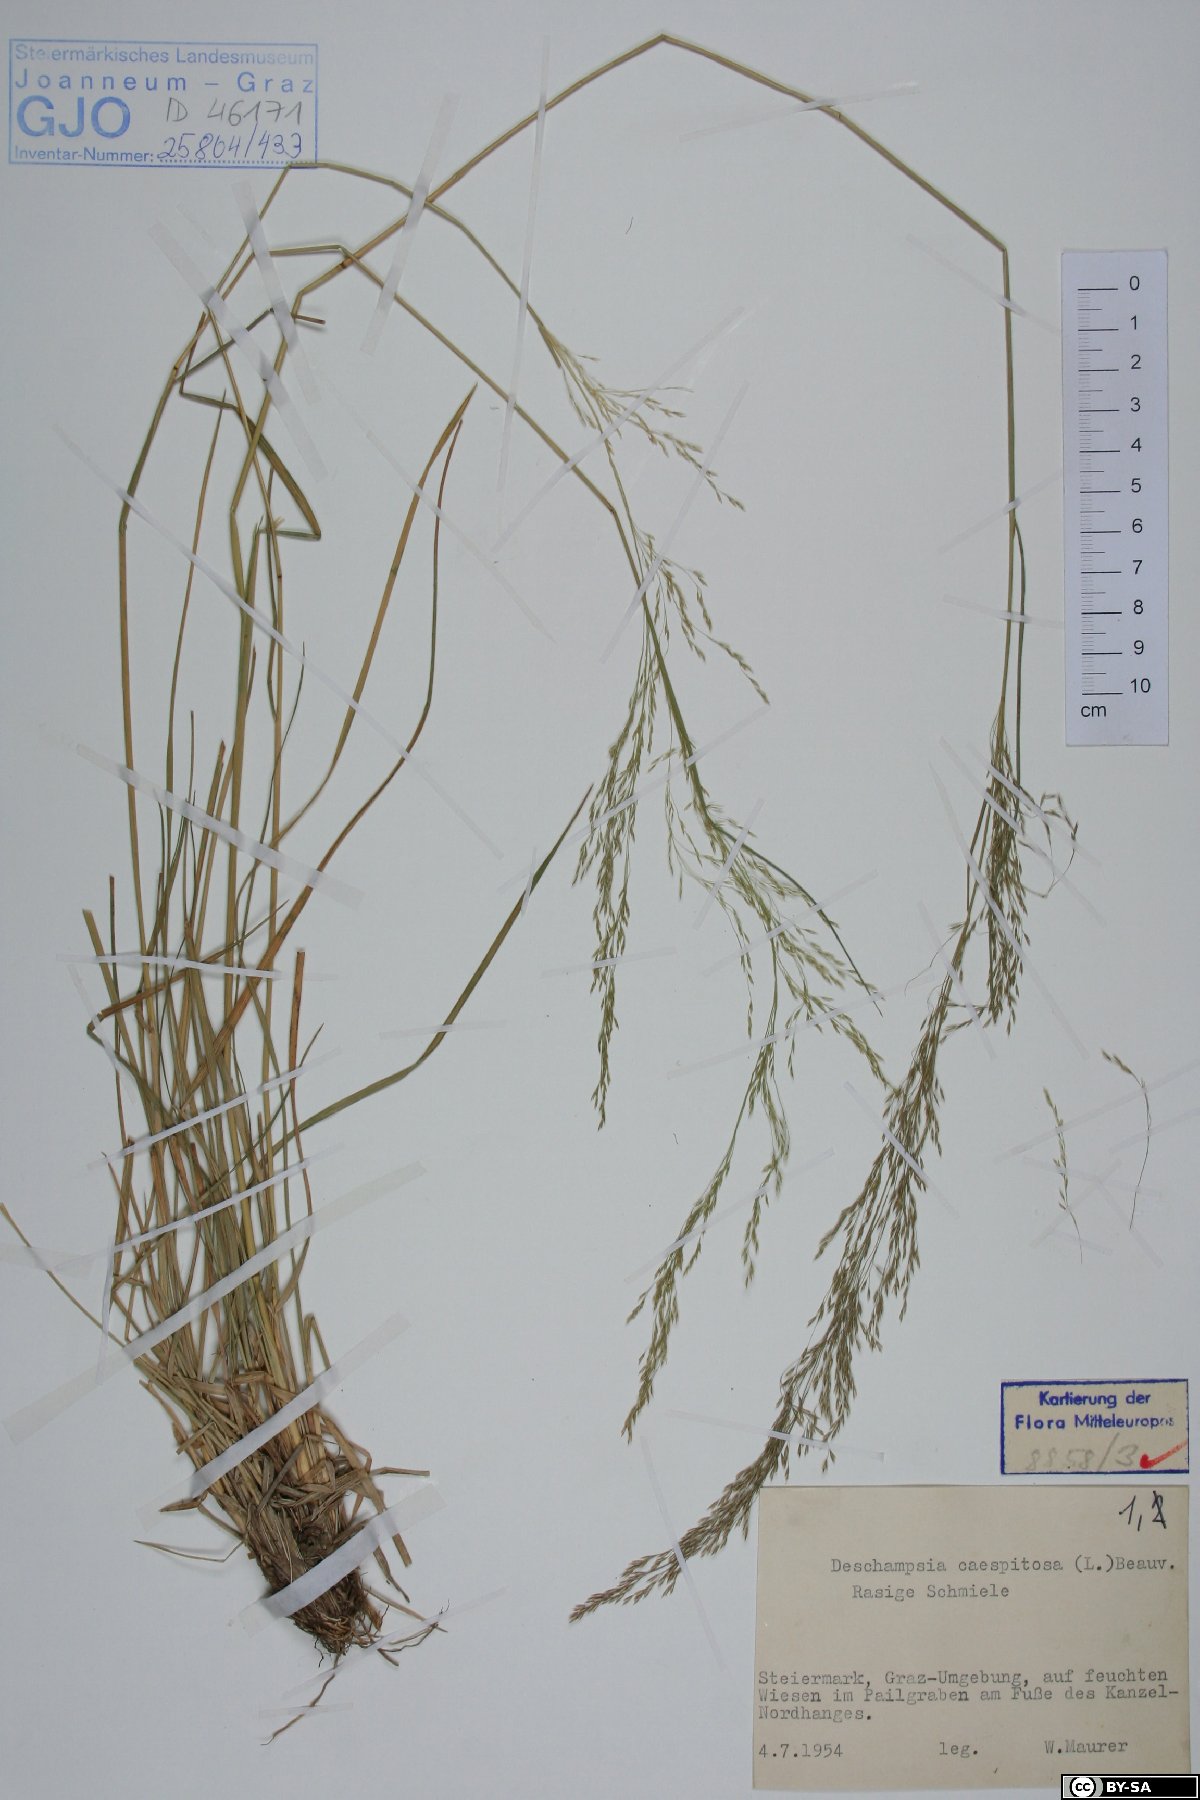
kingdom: Plantae
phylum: Tracheophyta
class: Liliopsida
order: Poales
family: Poaceae
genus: Deschampsia
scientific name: Deschampsia cespitosa
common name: Tufted hair-grass
